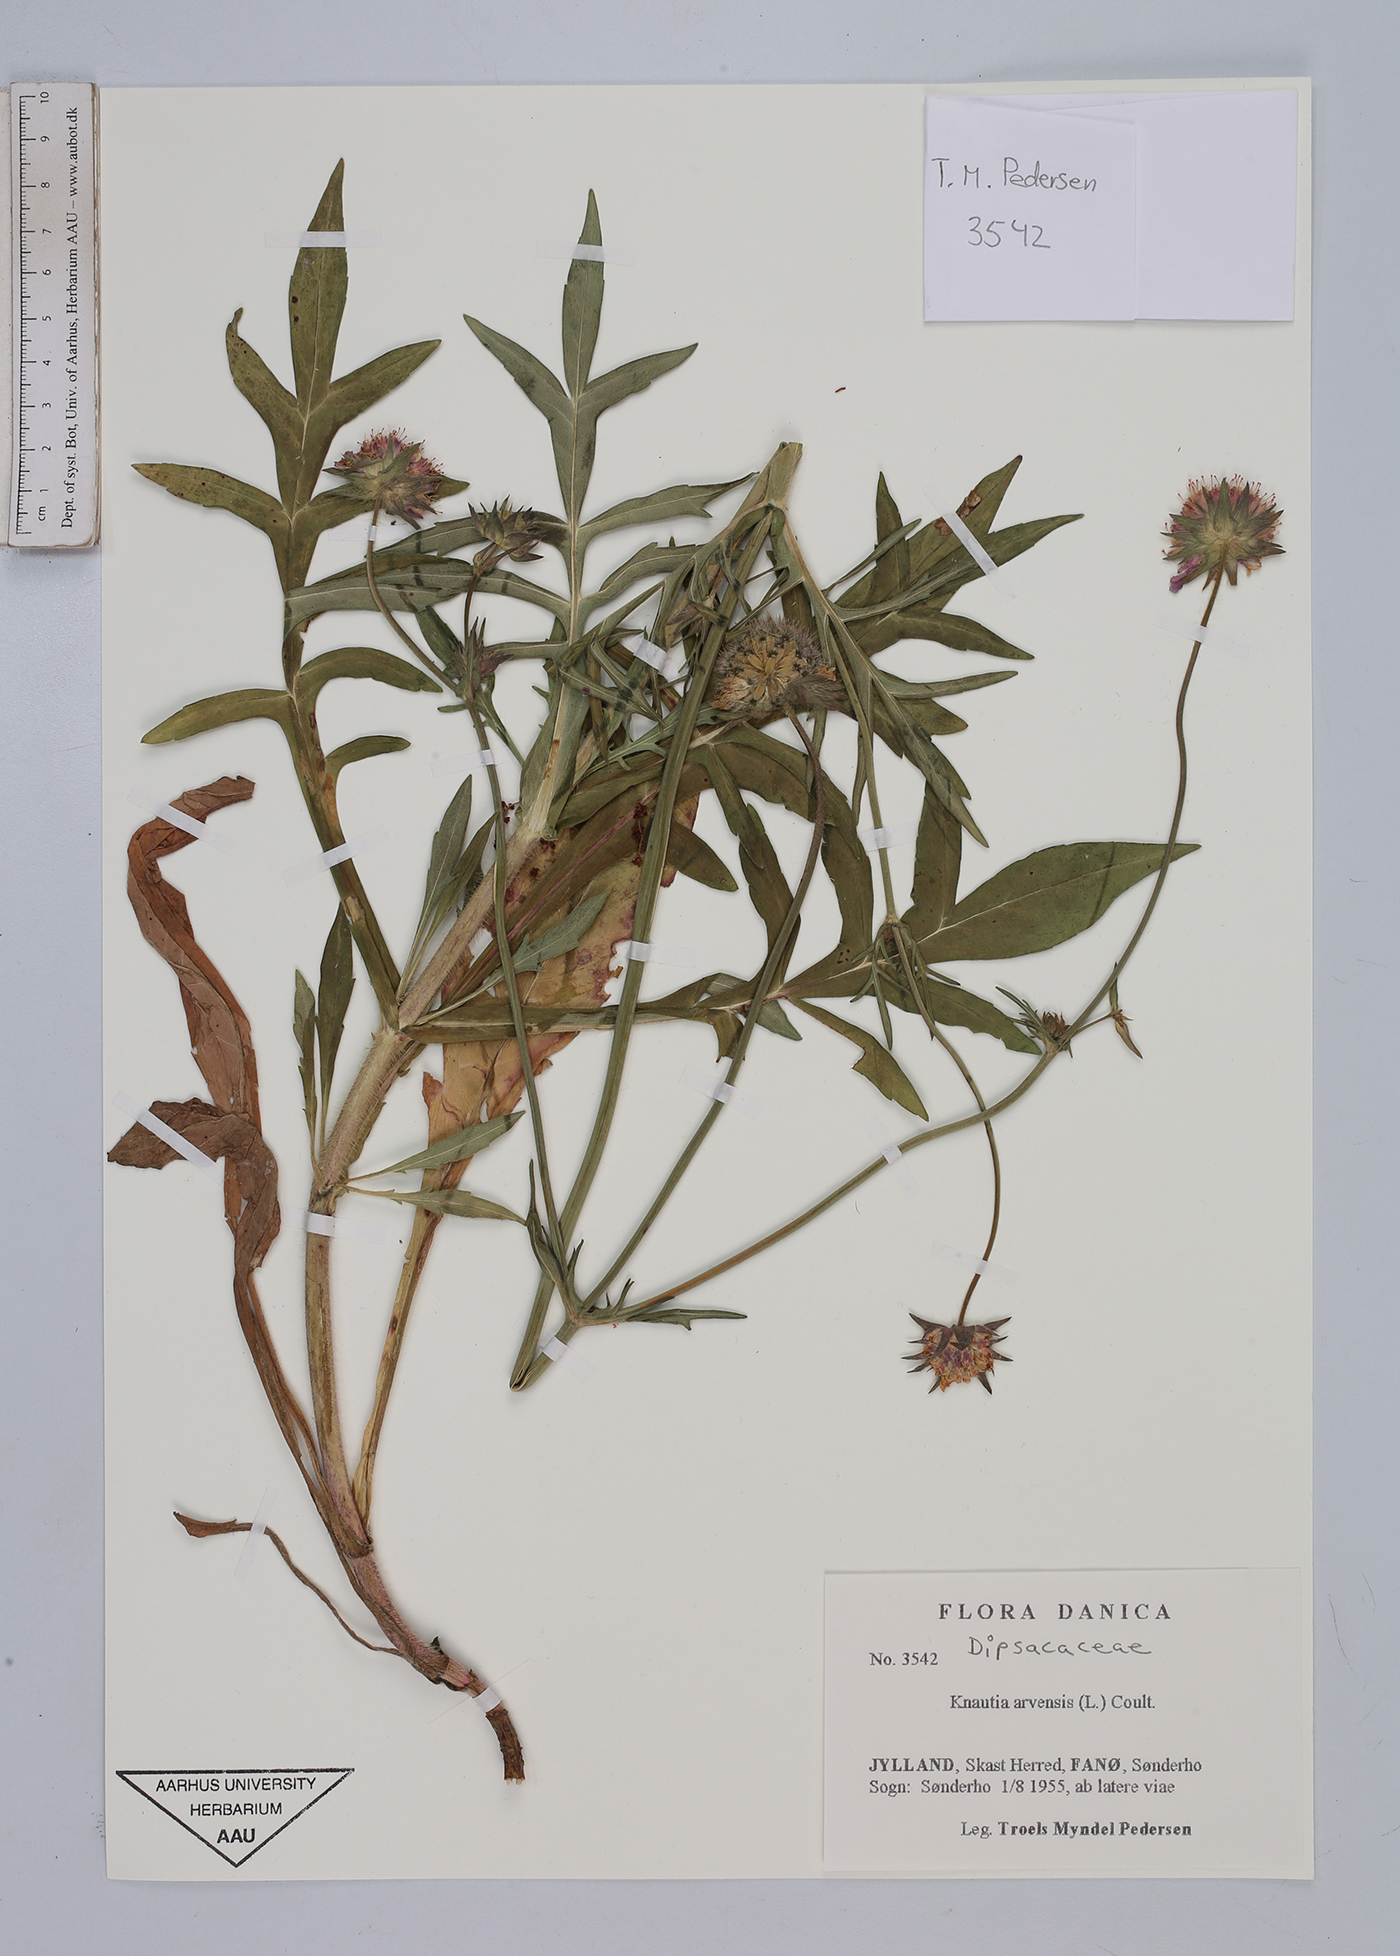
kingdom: Plantae
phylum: Tracheophyta
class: Magnoliopsida
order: Dipsacales
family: Caprifoliaceae
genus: Knautia
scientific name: Knautia arvensis
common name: Field scabiosa
